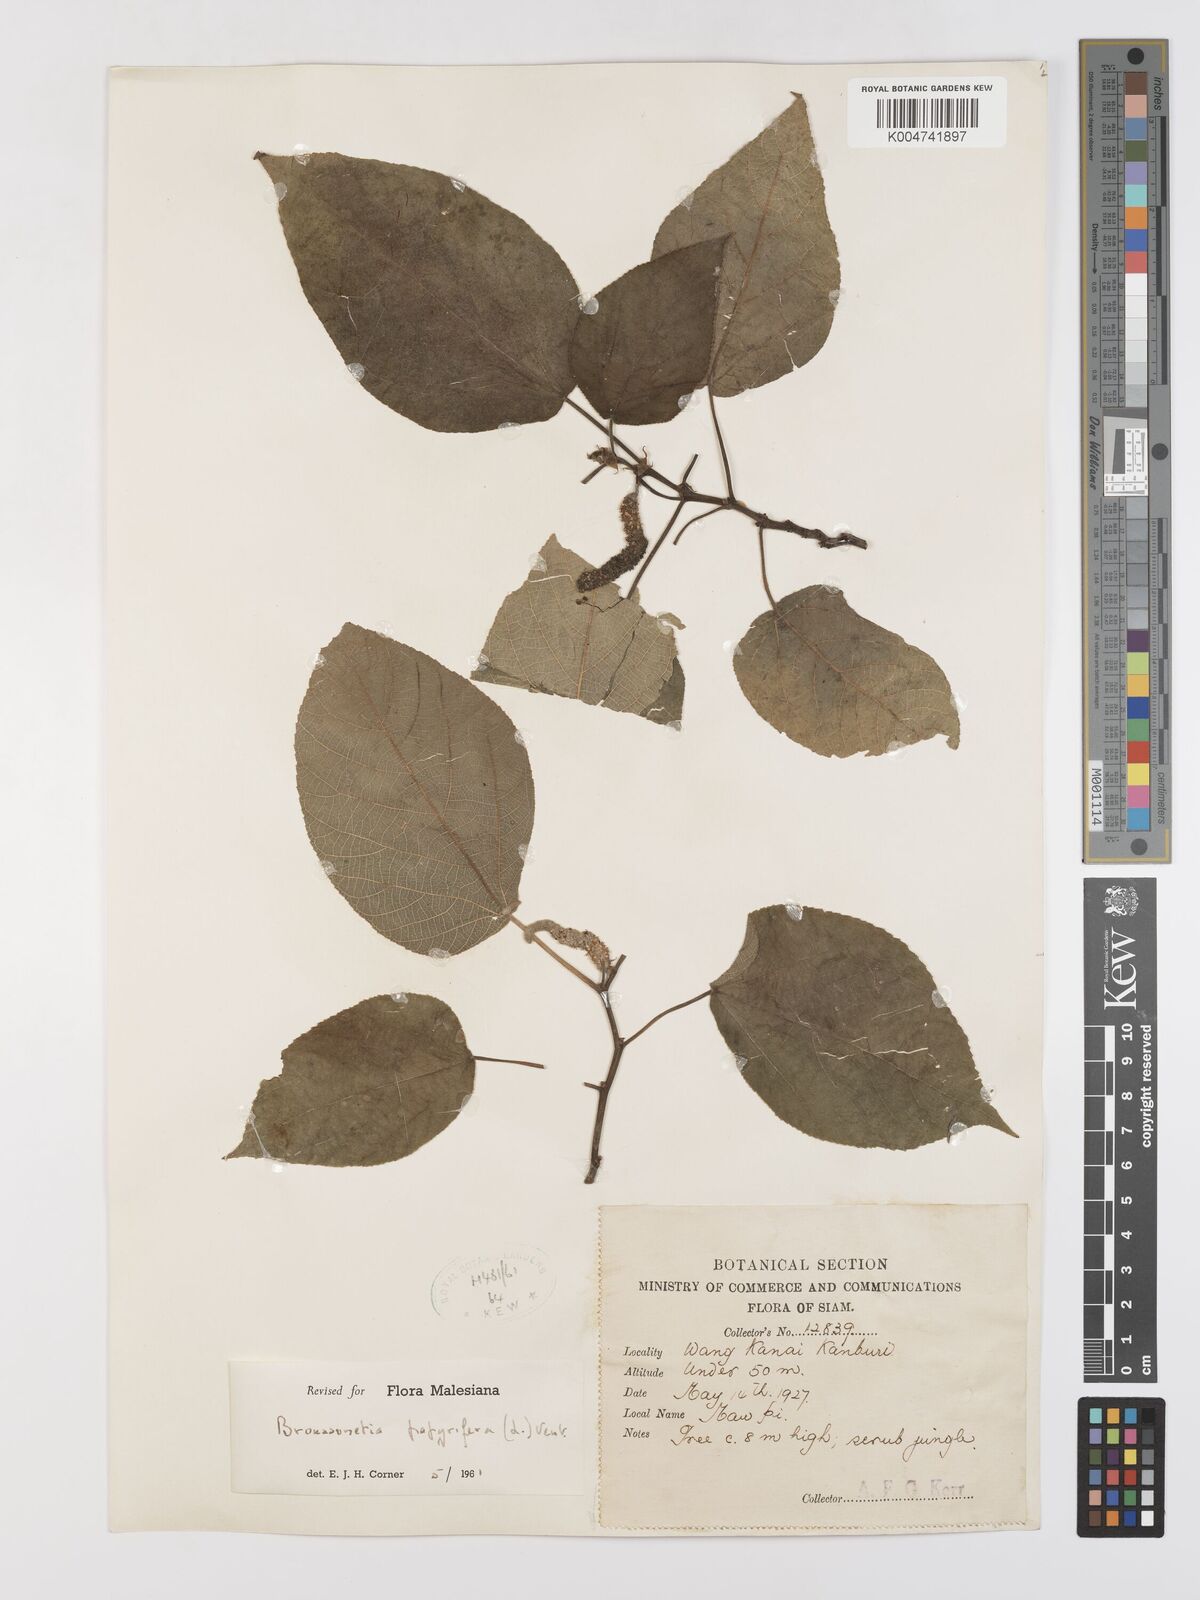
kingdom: Plantae
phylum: Tracheophyta
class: Magnoliopsida
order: Rosales
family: Moraceae
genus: Broussonetia
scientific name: Broussonetia papyrifera
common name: Paper mulberry
